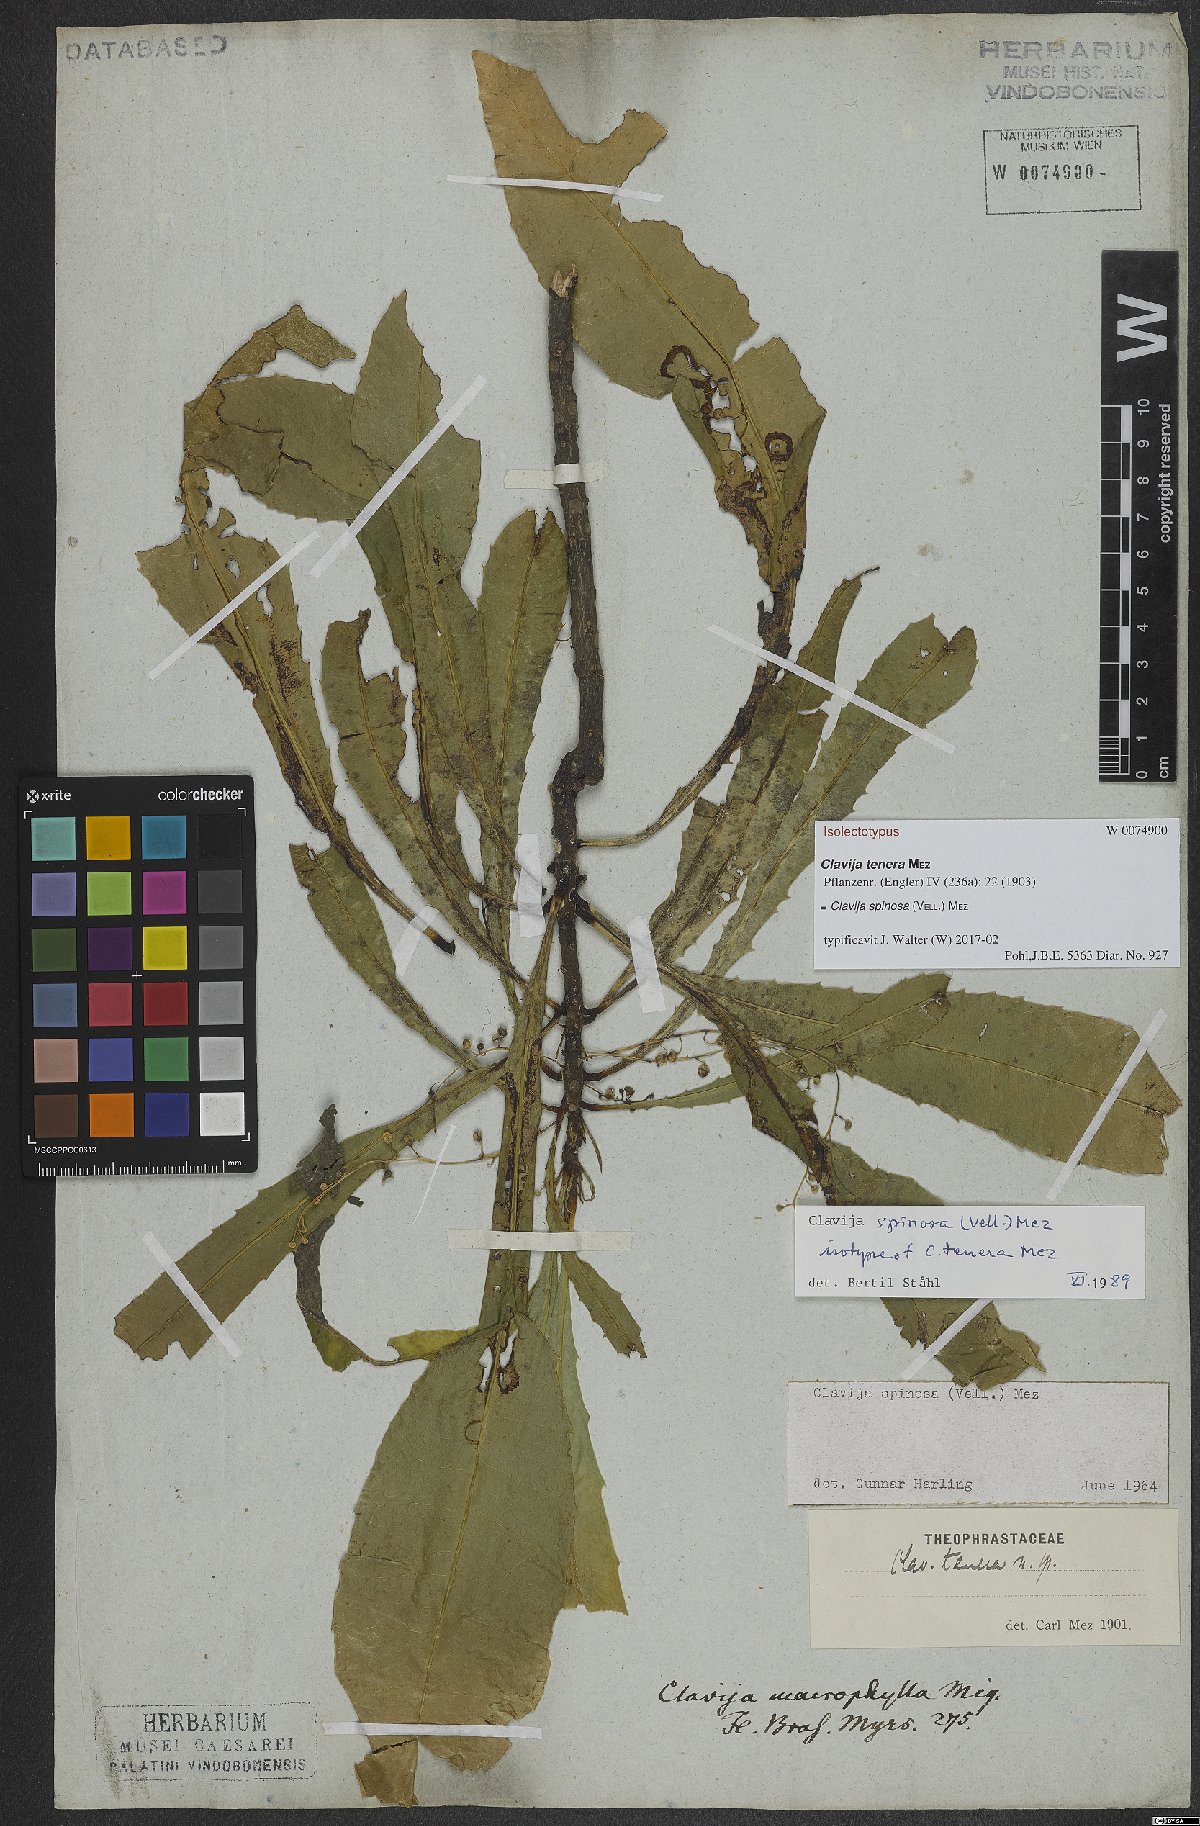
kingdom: Plantae
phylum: Tracheophyta
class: Magnoliopsida
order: Ericales
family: Primulaceae
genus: Clavija
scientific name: Clavija spinosa
